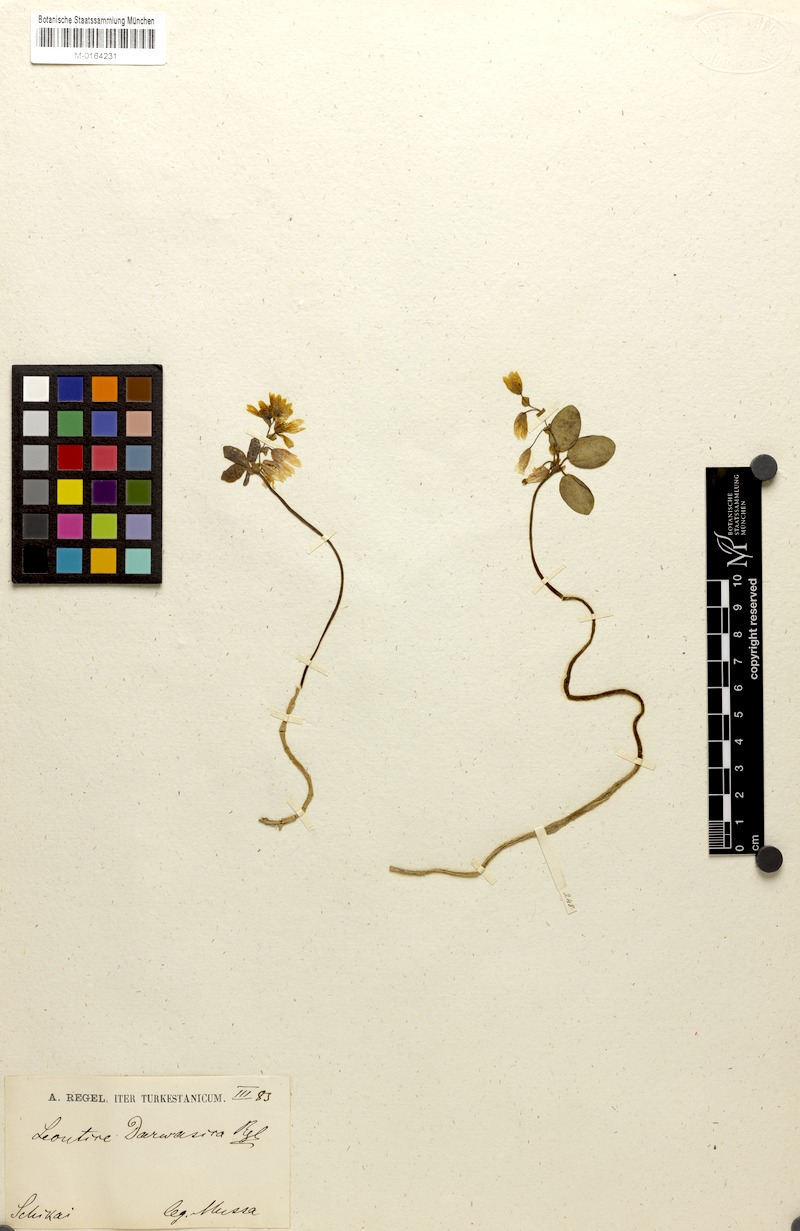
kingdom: Plantae
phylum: Tracheophyta
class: Magnoliopsida
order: Ranunculales
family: Berberidaceae
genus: Gymnospermium
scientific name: Gymnospermium darwasicum
